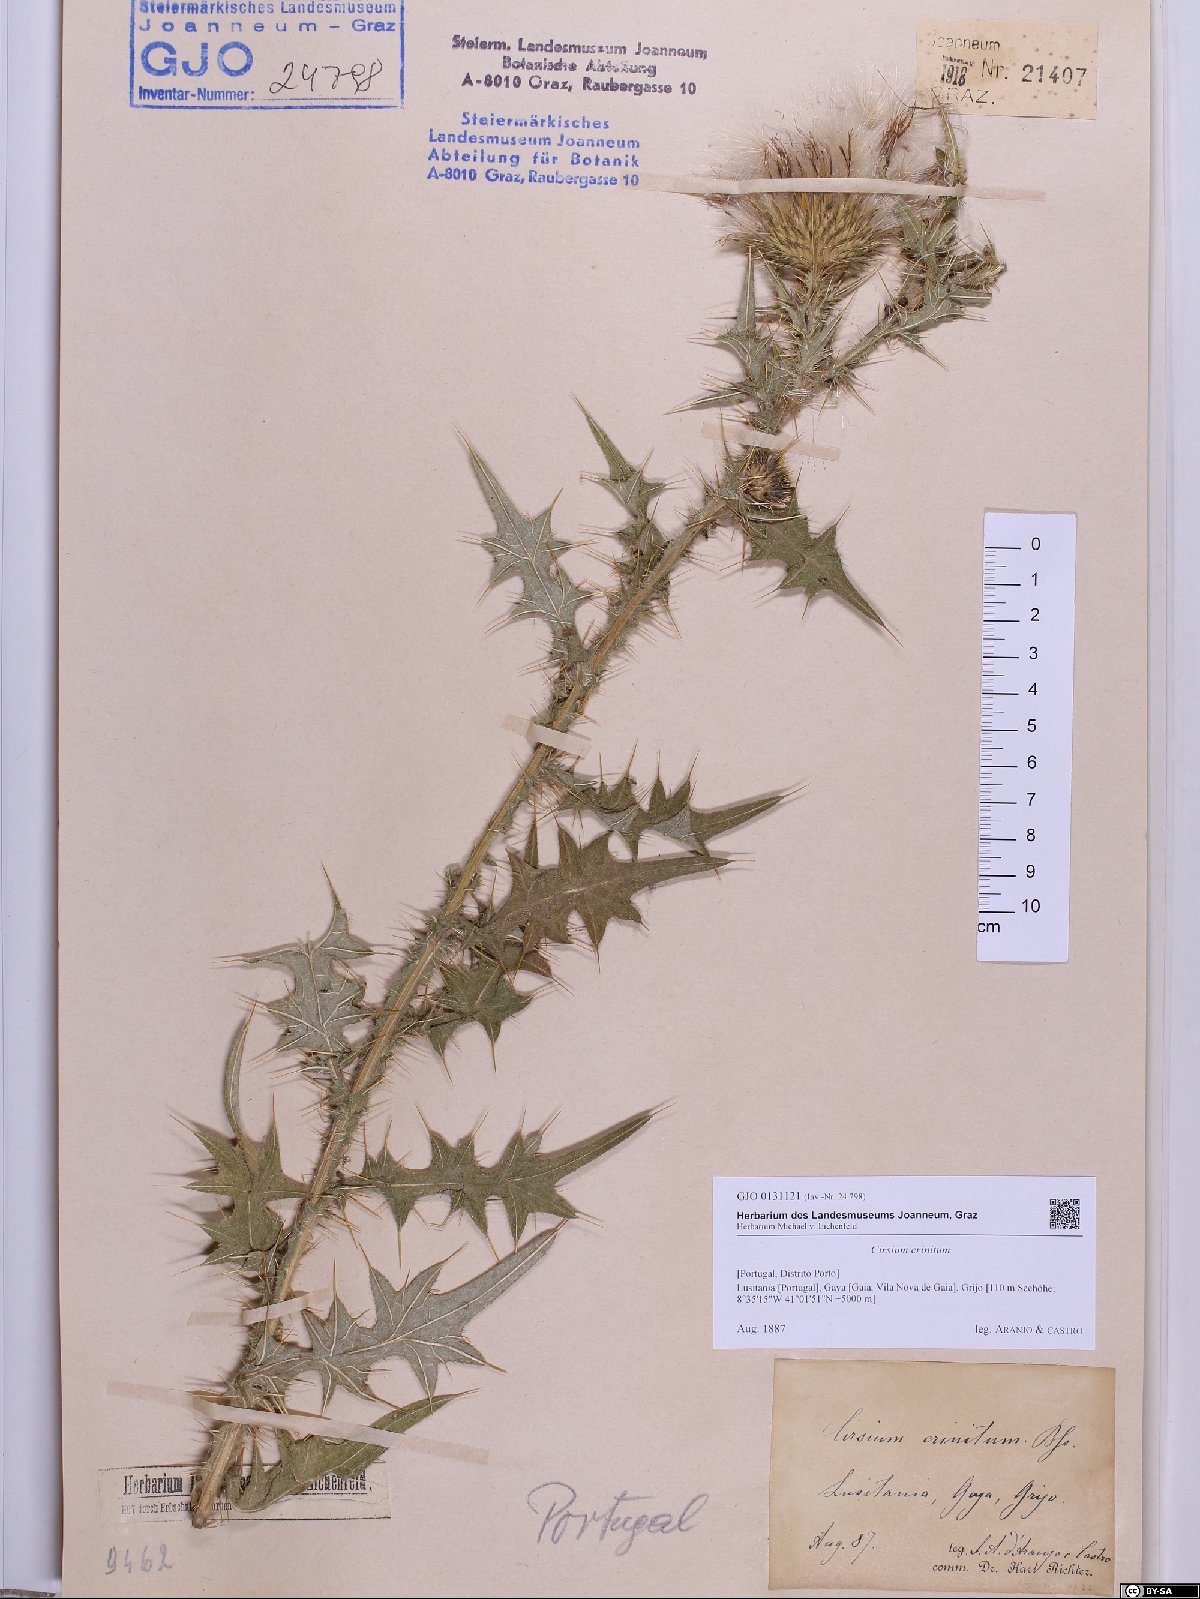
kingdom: Plantae
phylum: Tracheophyta
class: Magnoliopsida
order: Asterales
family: Asteraceae
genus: Cirsium
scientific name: Cirsium vulgare
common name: Bull thistle
